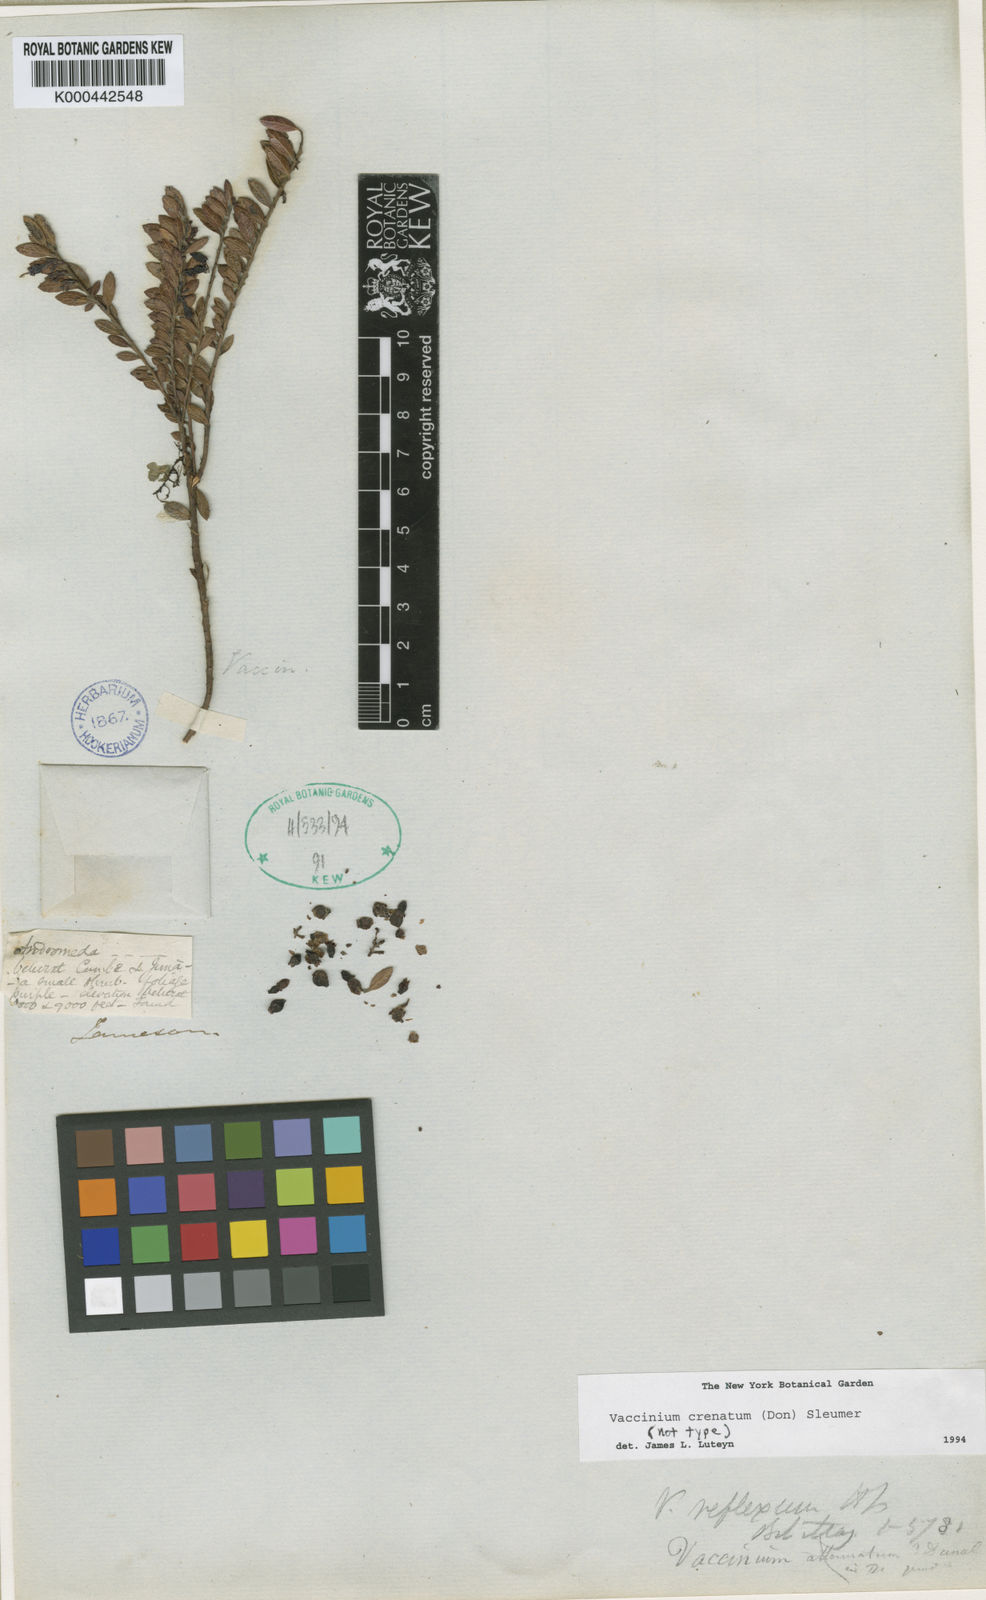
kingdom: Plantae
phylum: Tracheophyta
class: Magnoliopsida
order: Ericales
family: Ericaceae
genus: Vaccinium
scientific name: Vaccinium crenatum
